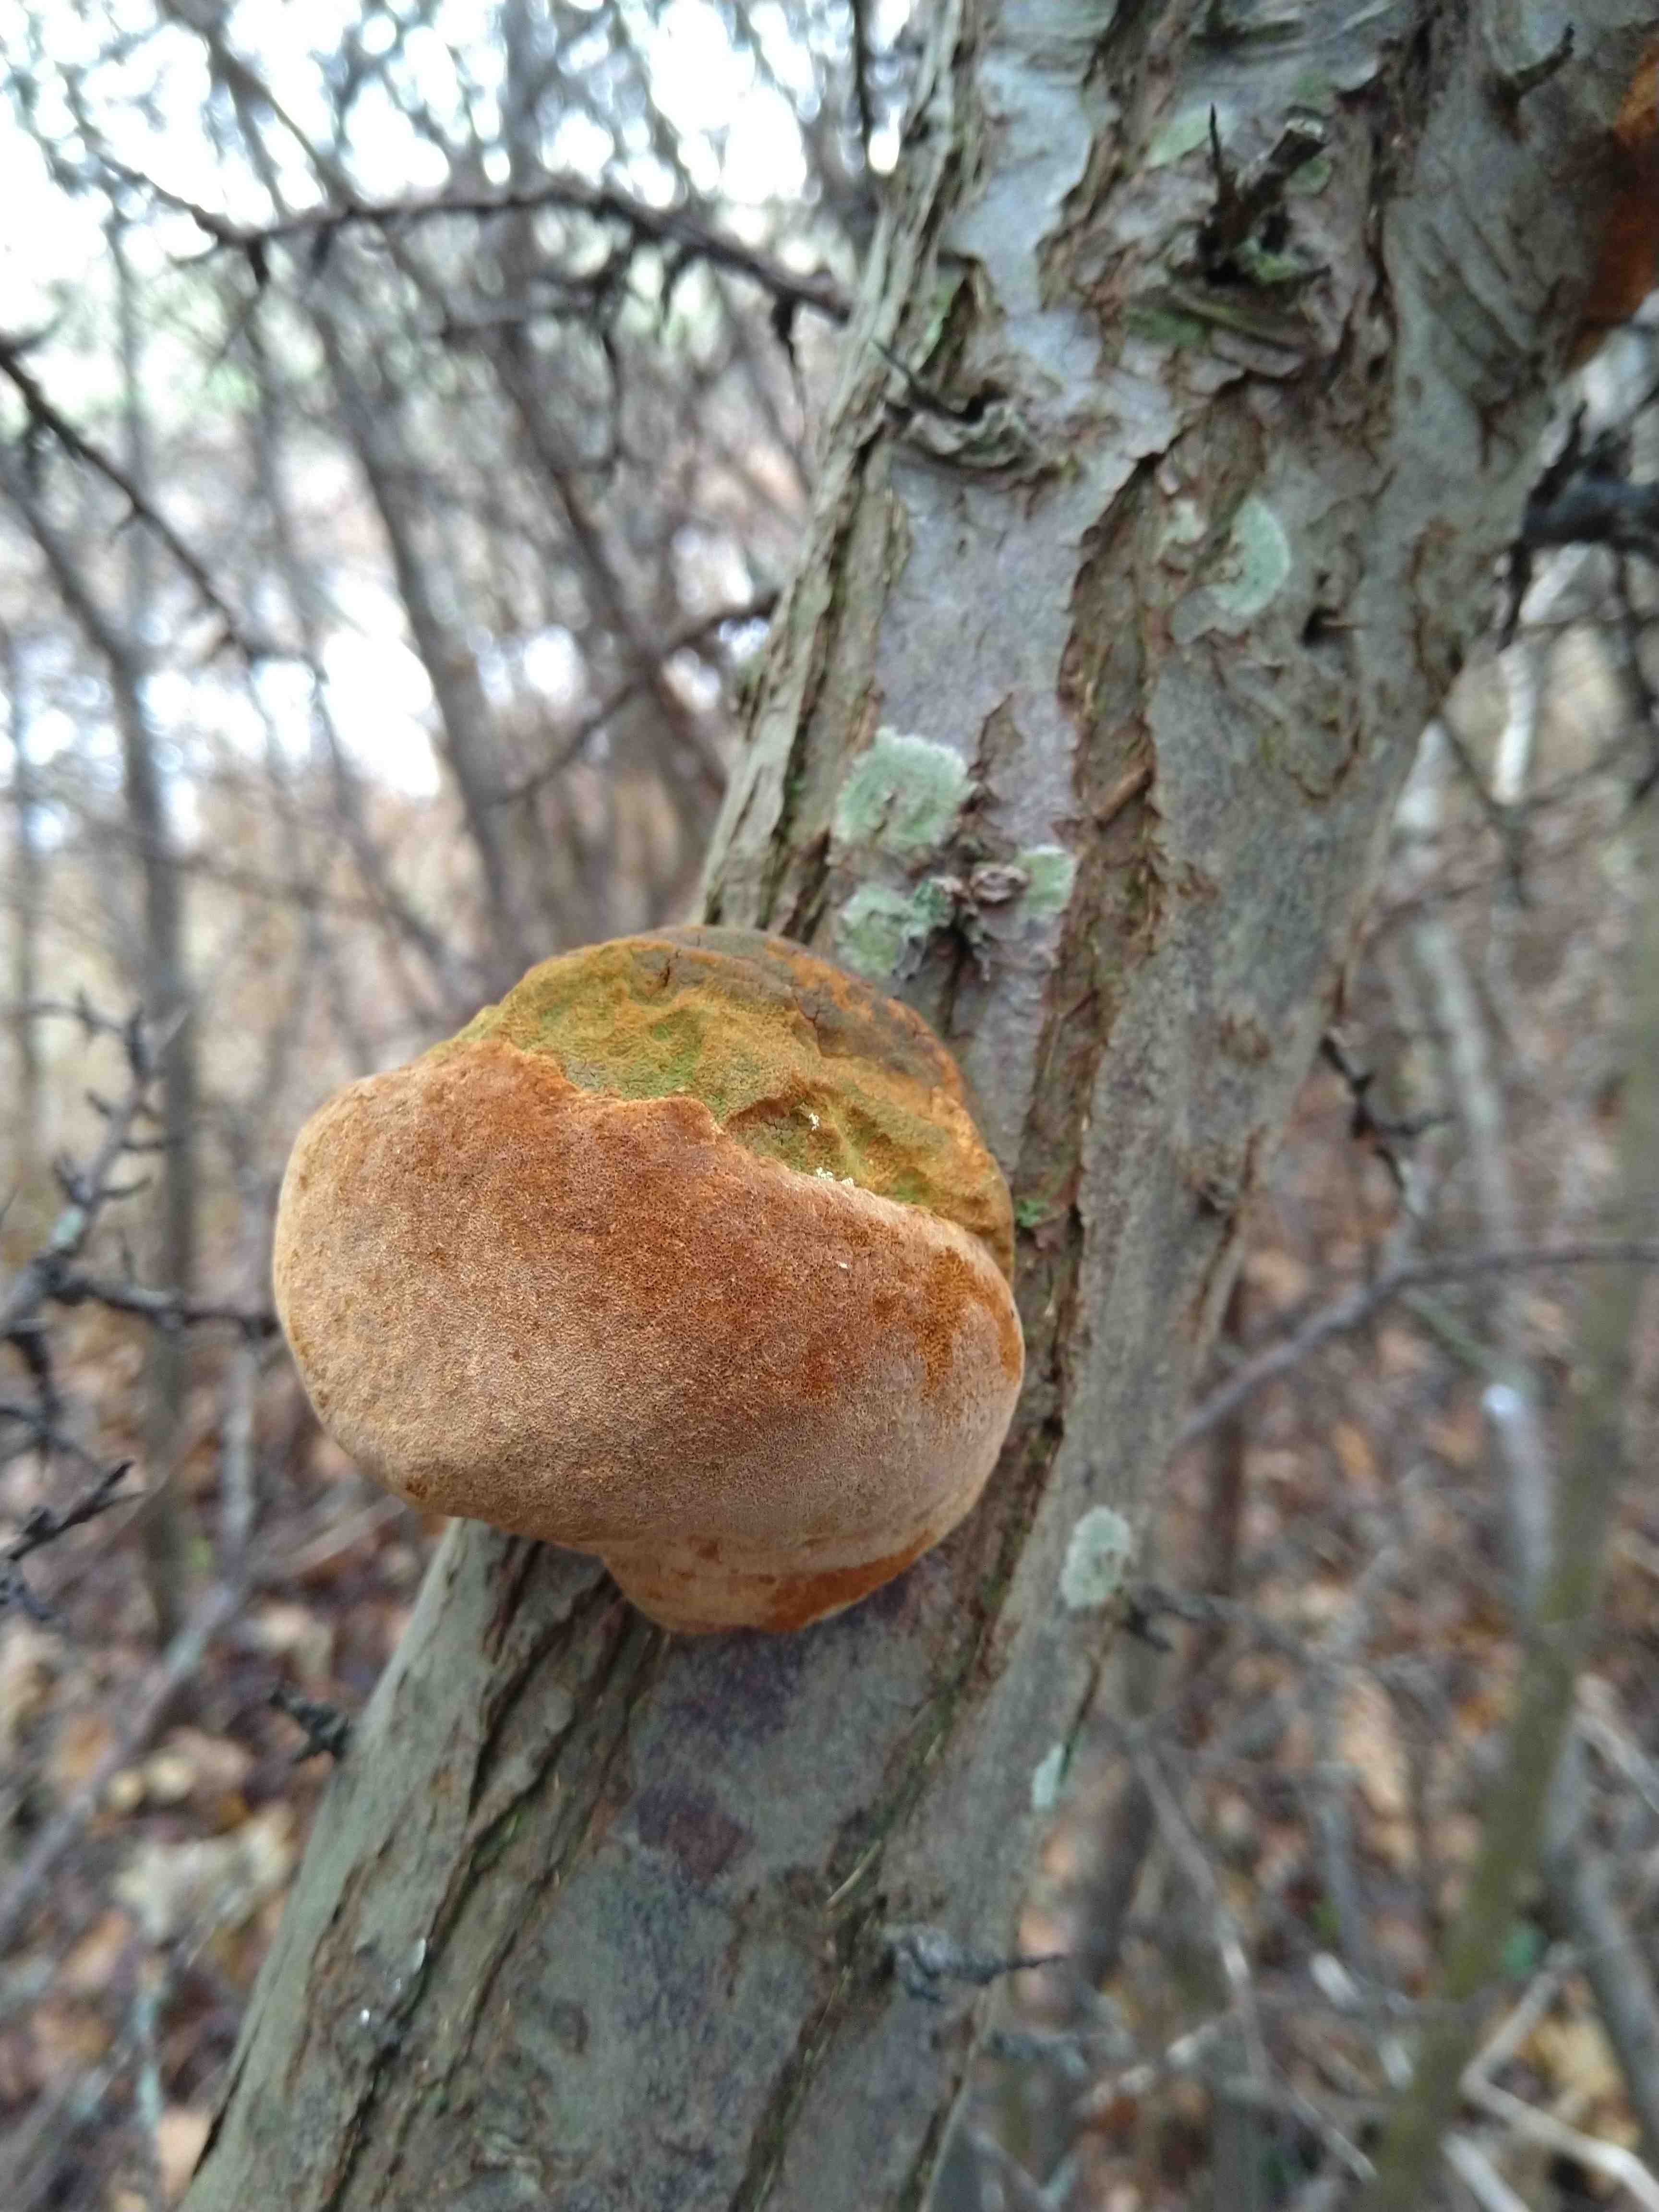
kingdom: Fungi
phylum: Basidiomycota
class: Agaricomycetes
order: Hymenochaetales
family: Hymenochaetaceae
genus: Phellinus
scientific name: Phellinus pomaceus
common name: blomme-ildporesvamp
